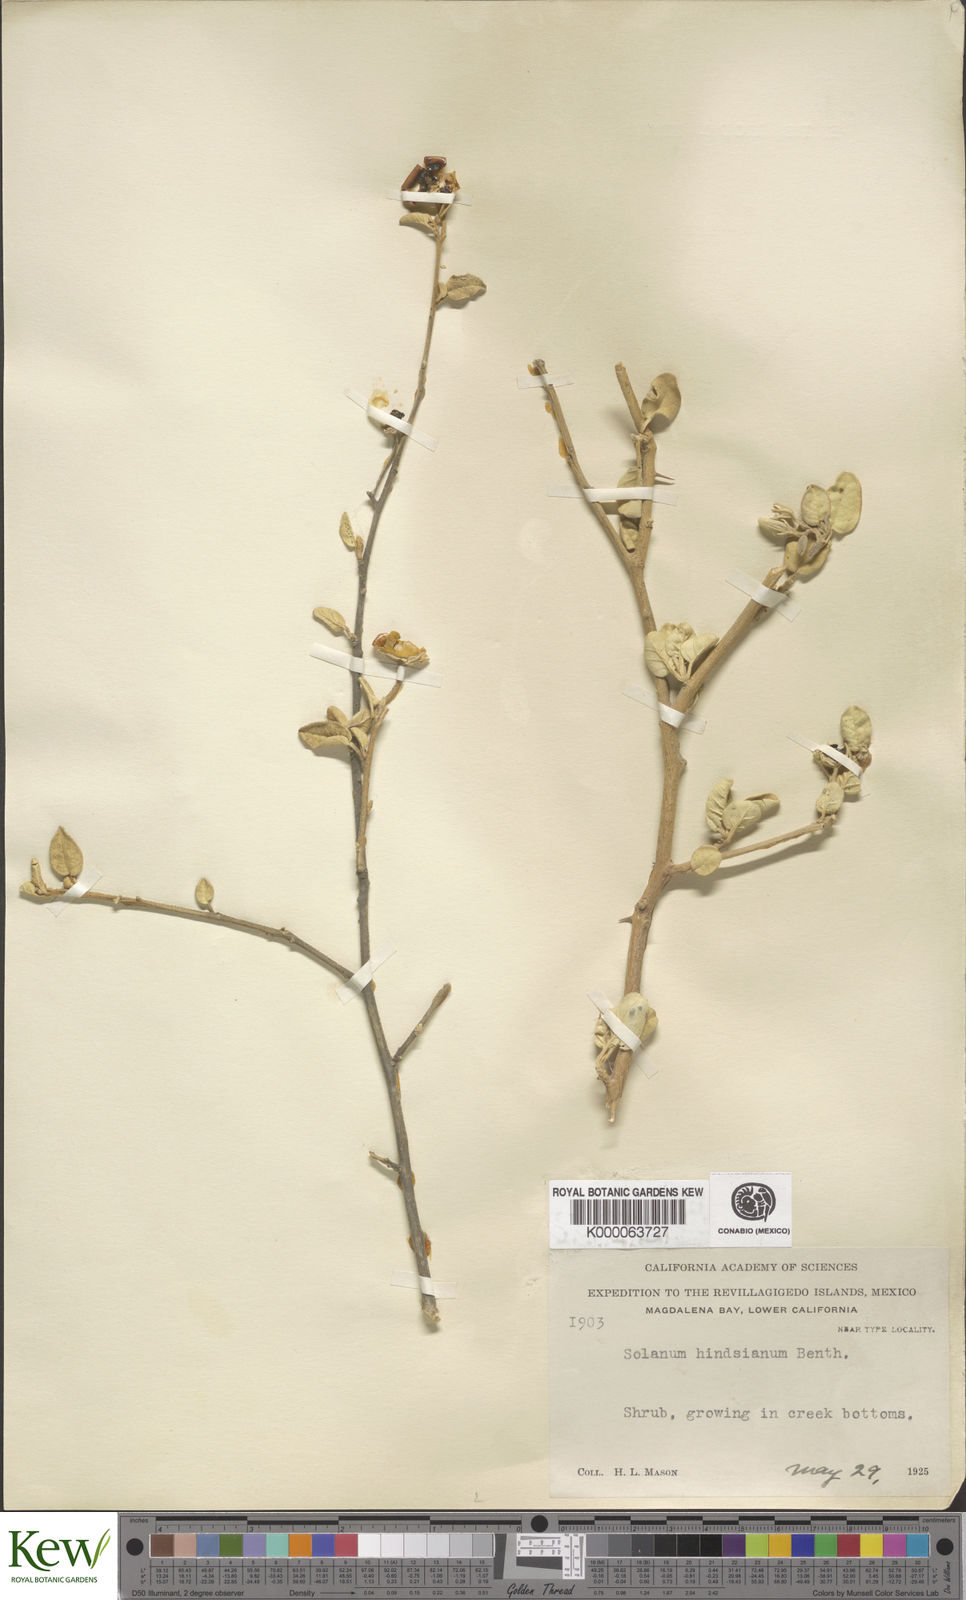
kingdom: Plantae
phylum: Tracheophyta
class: Magnoliopsida
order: Solanales
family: Solanaceae
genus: Solanum
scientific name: Solanum hindsianum
